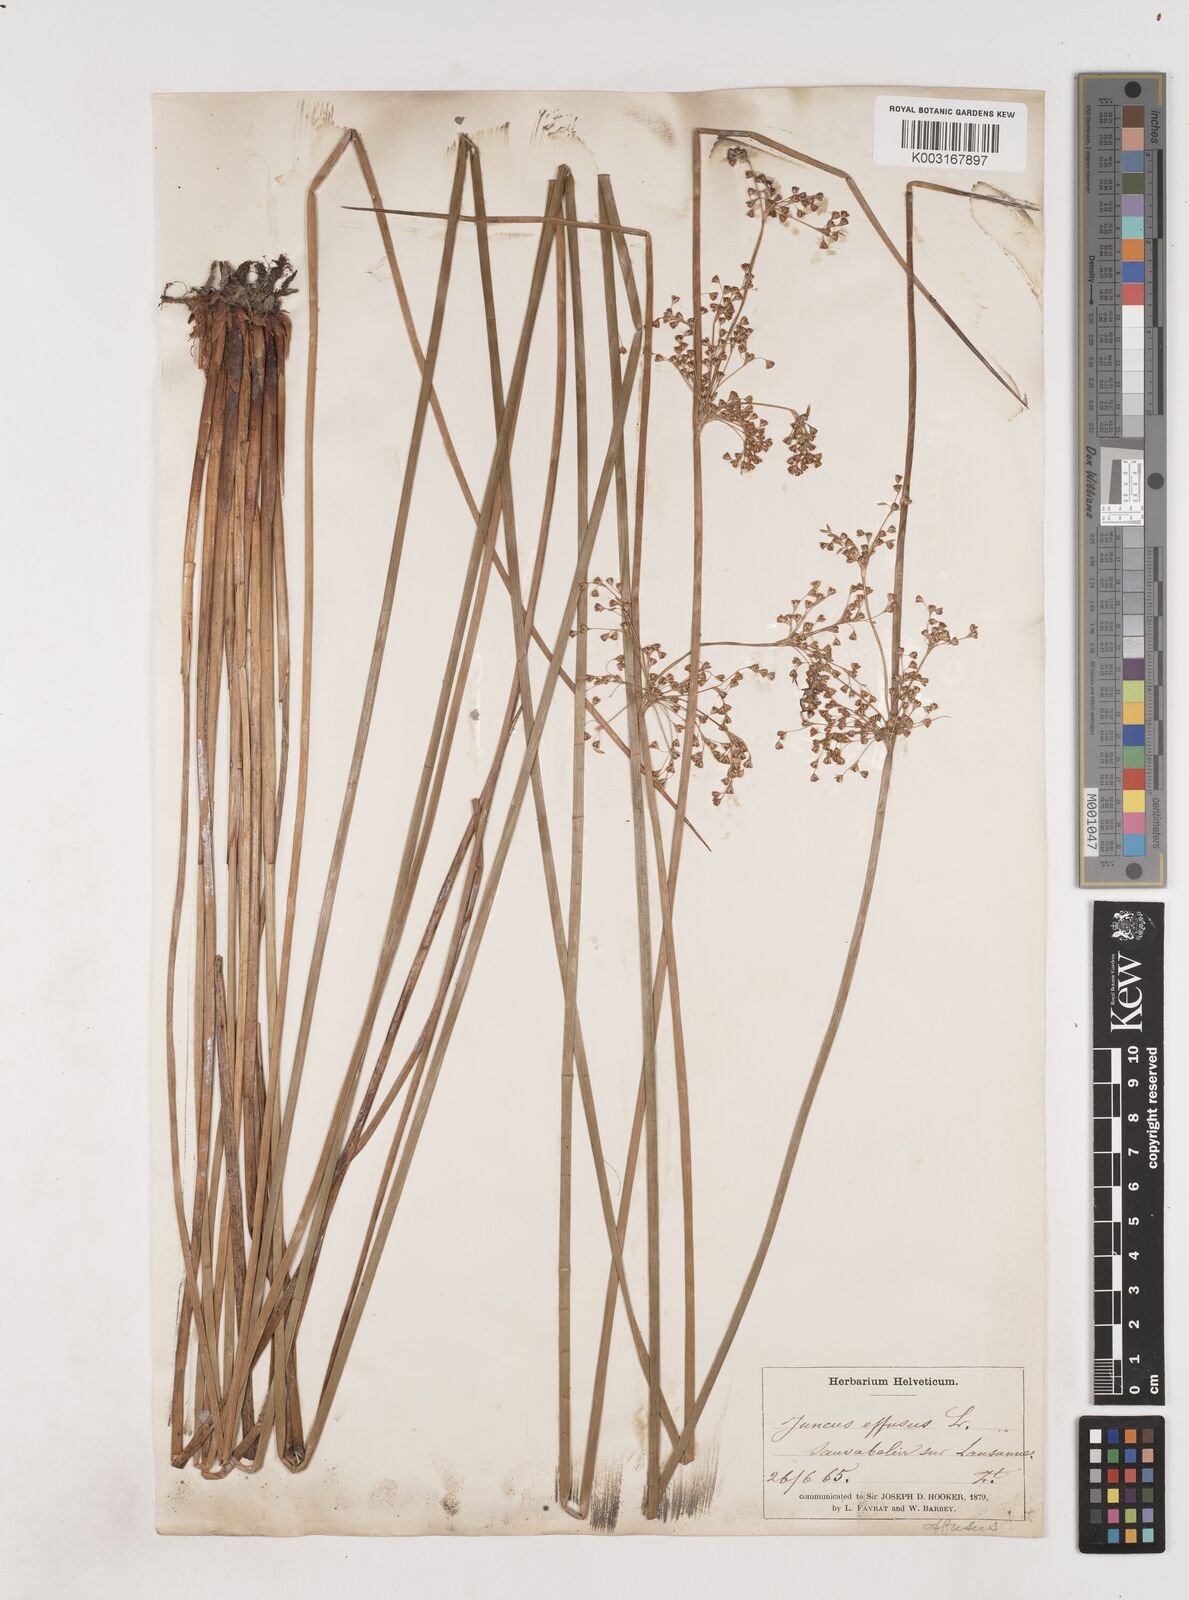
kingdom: Plantae
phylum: Tracheophyta
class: Liliopsida
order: Poales
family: Juncaceae
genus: Juncus
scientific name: Juncus effusus
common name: Soft rush
